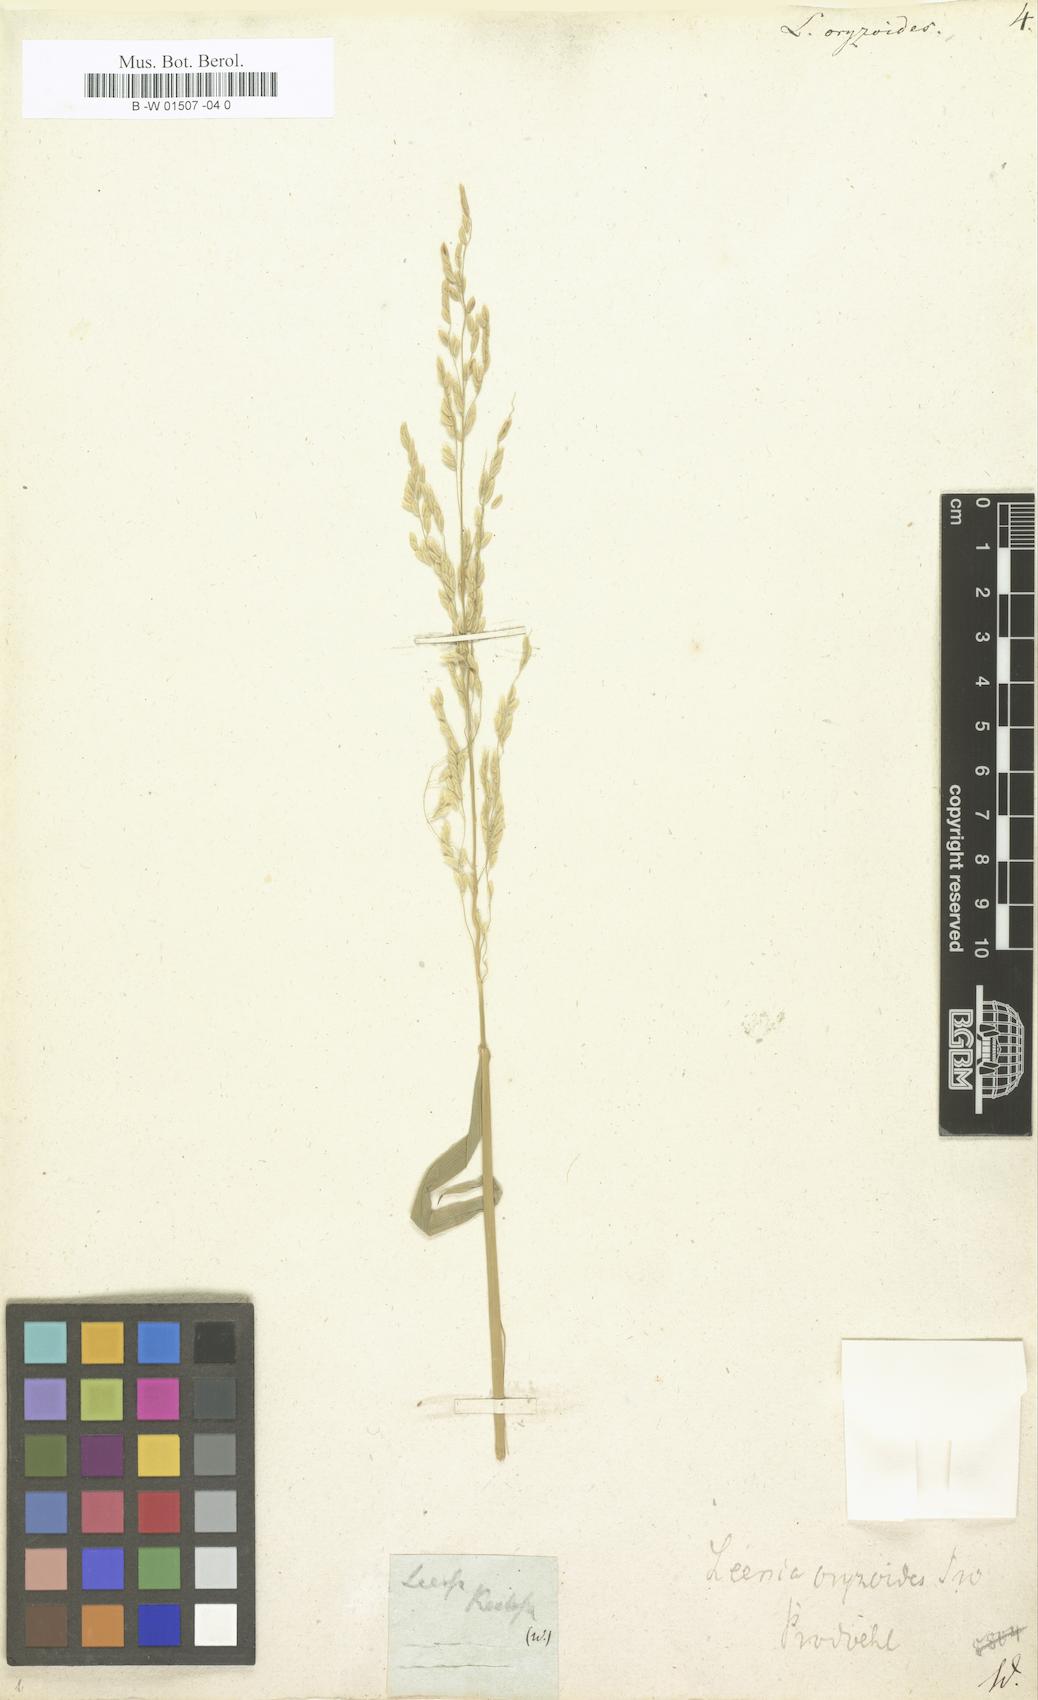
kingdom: Plantae
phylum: Tracheophyta
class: Liliopsida
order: Poales
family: Poaceae
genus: Leersia
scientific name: Leersia oryzoides
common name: Cut-grass
